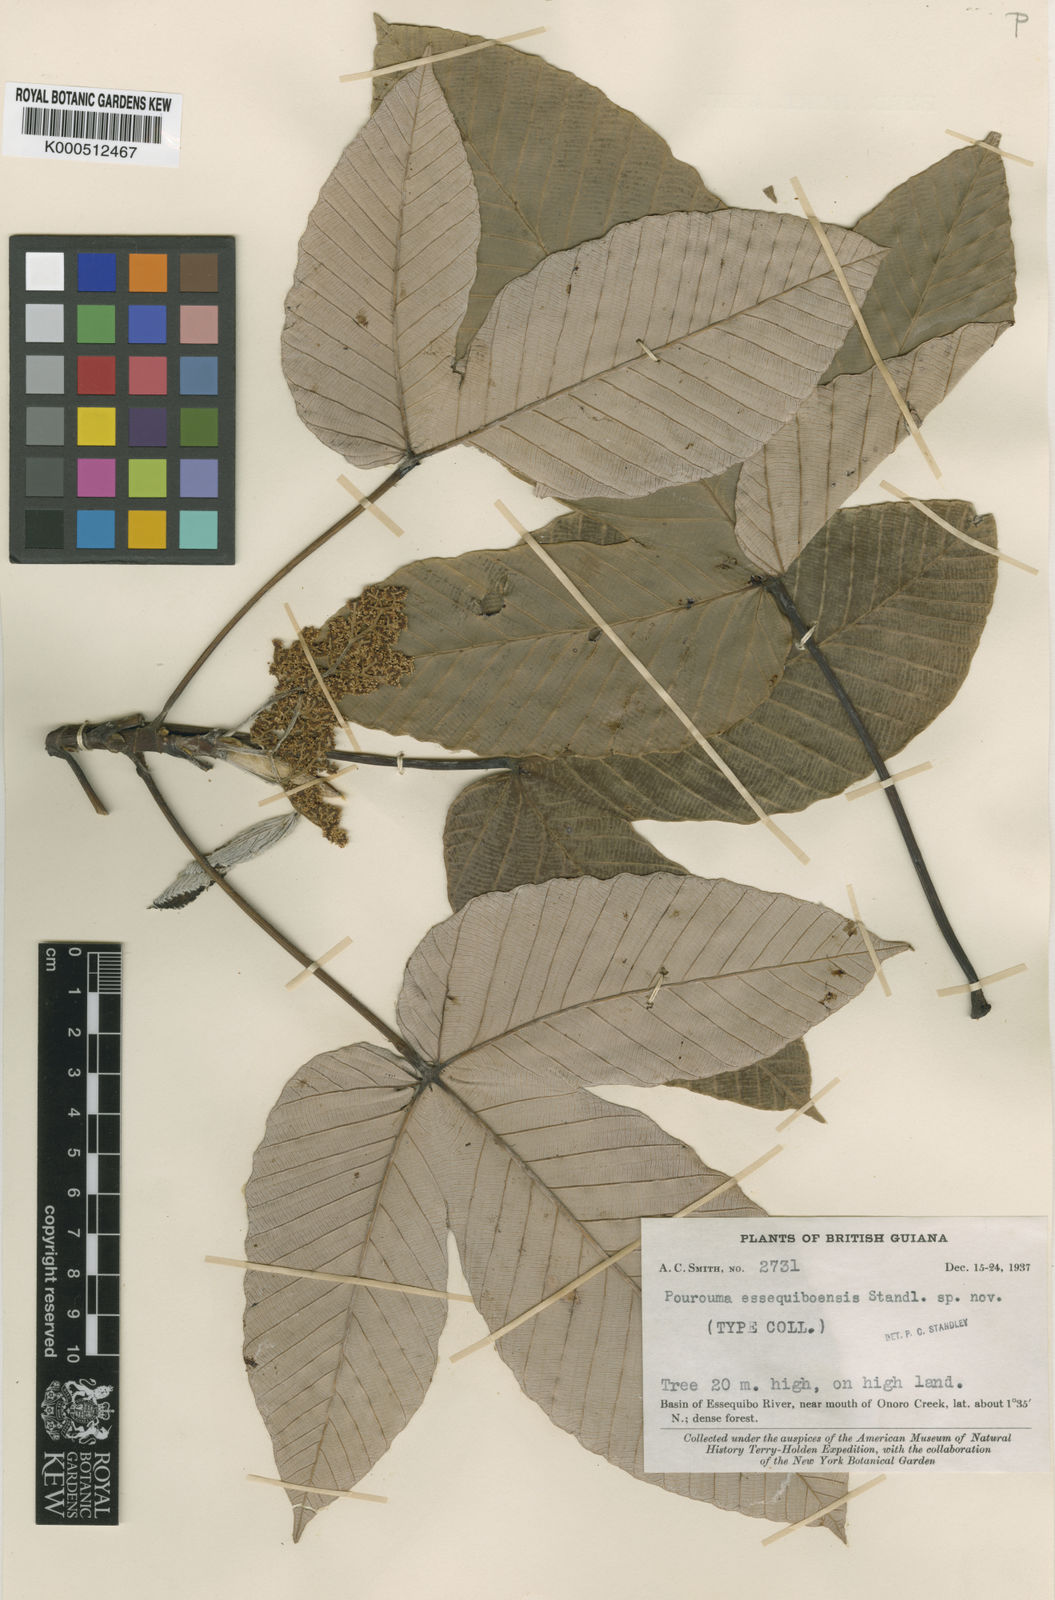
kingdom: Plantae
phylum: Tracheophyta
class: Magnoliopsida
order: Rosales
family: Urticaceae
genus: Pourouma
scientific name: Pourouma tomentosa
